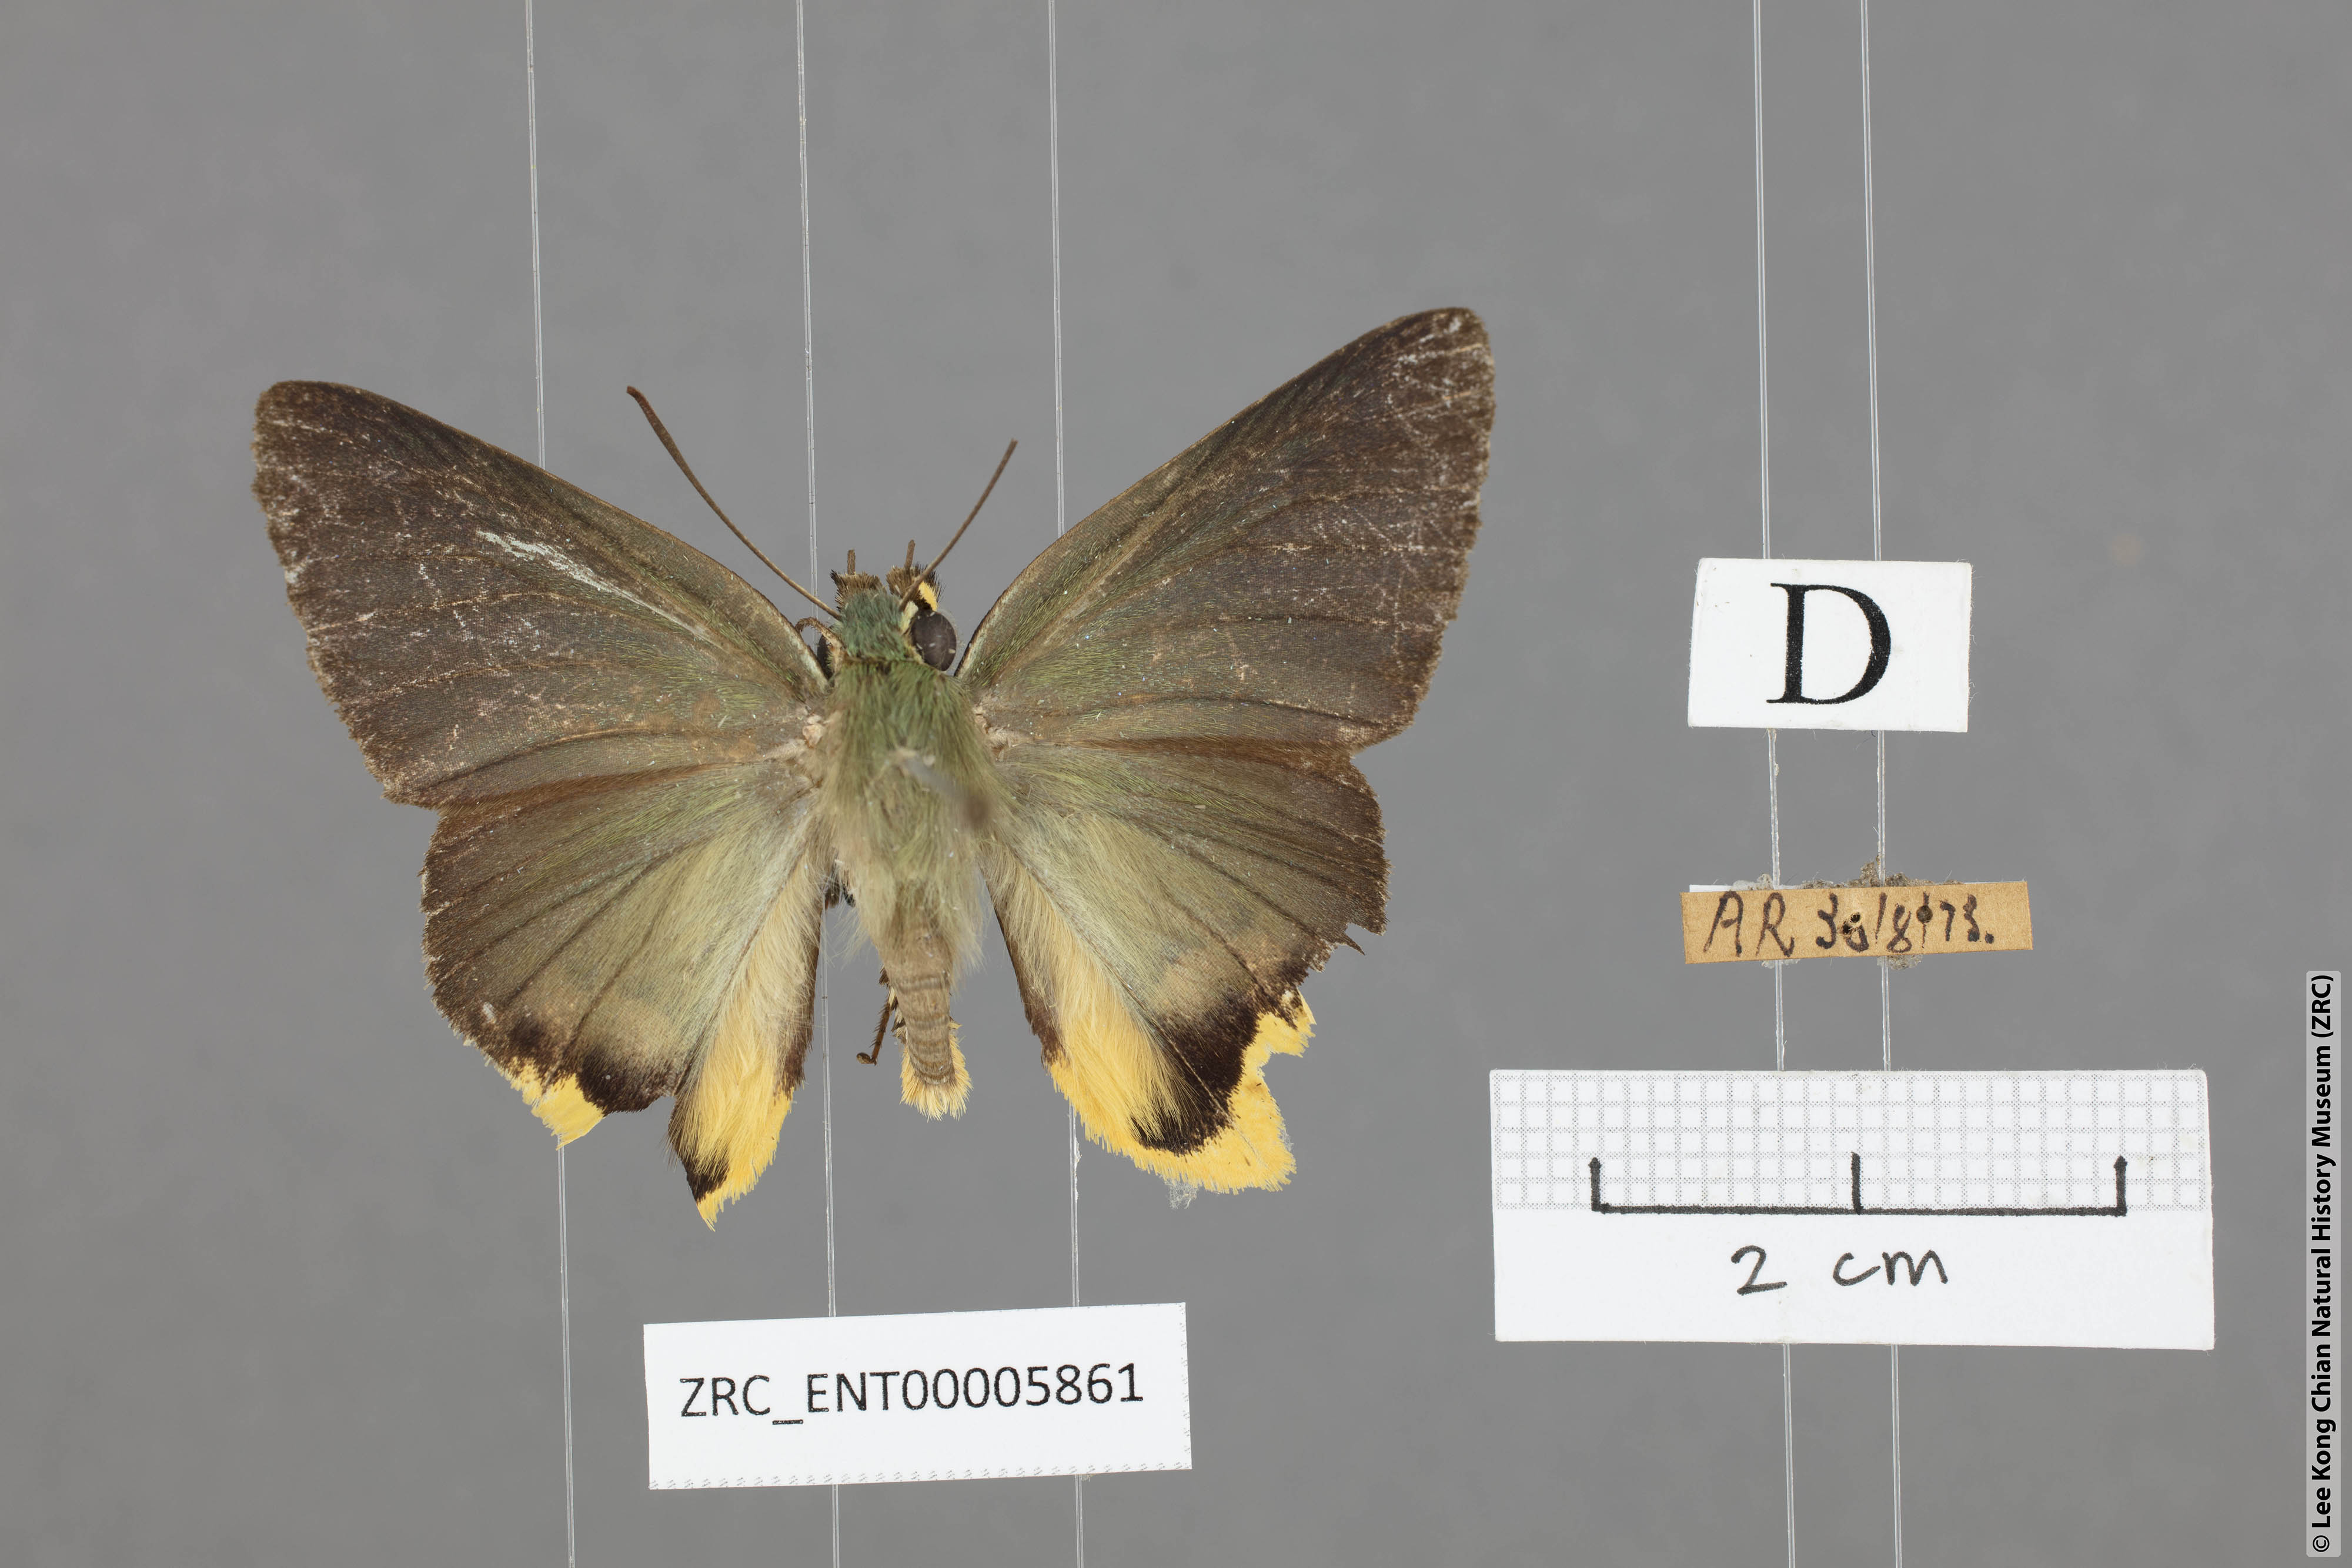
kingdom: Animalia
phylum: Arthropoda
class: Insecta
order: Lepidoptera
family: Hesperiidae
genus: Choaspes
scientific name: Choaspes subcaudata
